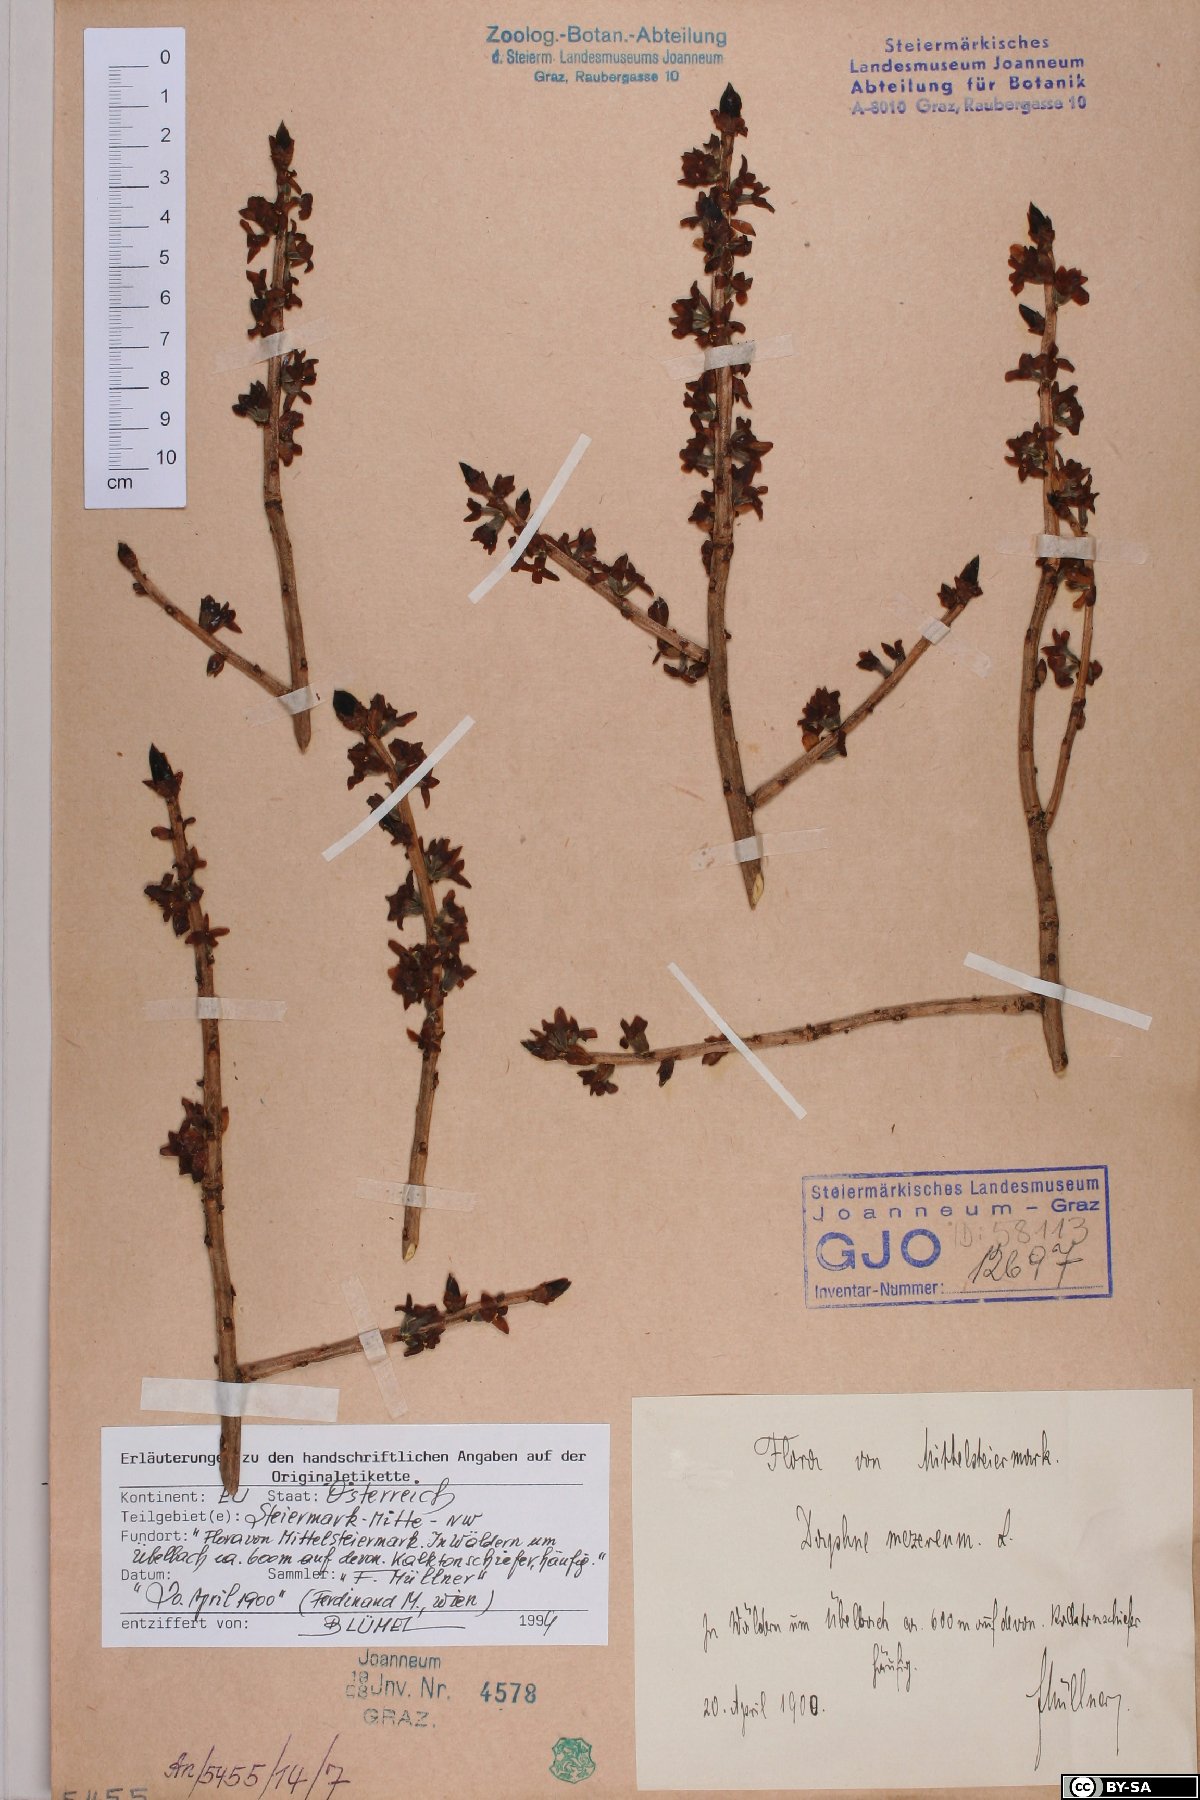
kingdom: Plantae
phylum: Tracheophyta
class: Magnoliopsida
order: Malvales
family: Thymelaeaceae
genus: Daphne
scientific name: Daphne mezereum
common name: Mezereon
